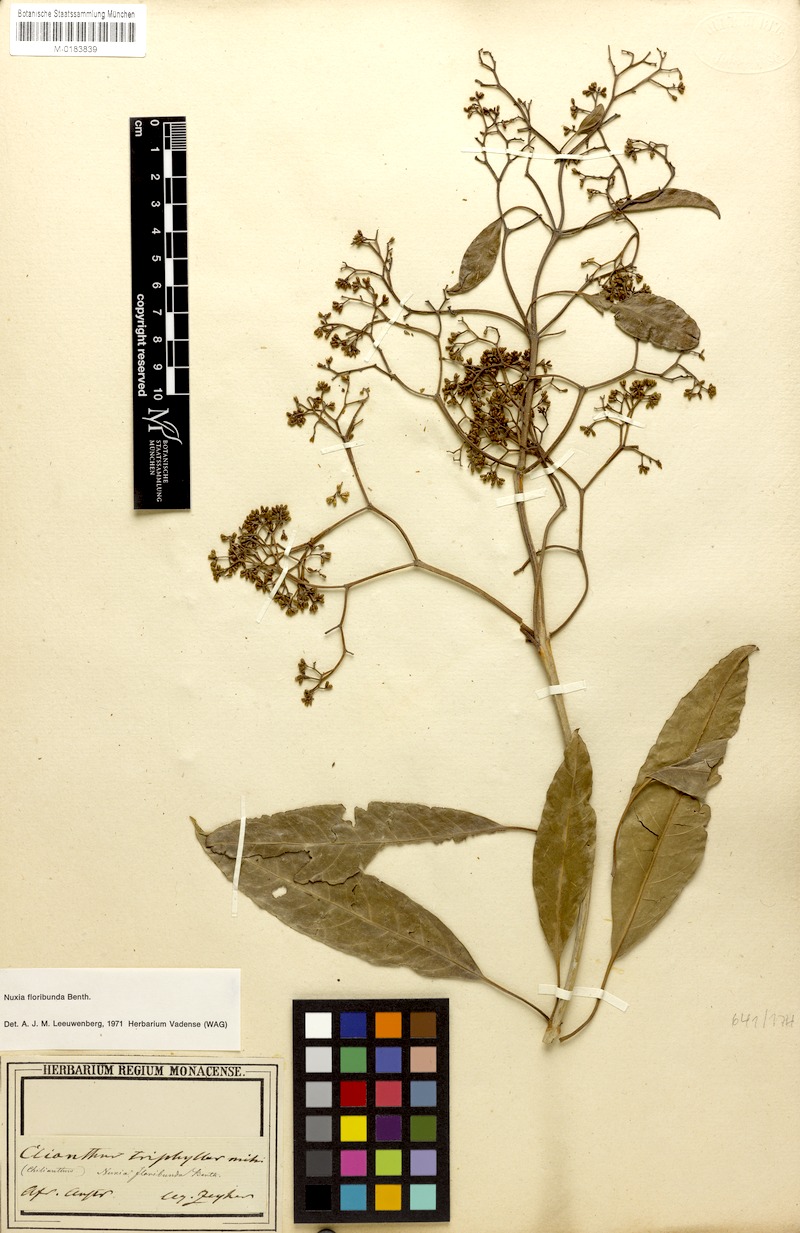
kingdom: Plantae
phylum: Tracheophyta
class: Magnoliopsida
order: Lamiales
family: Stilbaceae
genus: Nuxia
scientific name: Nuxia floribunda
